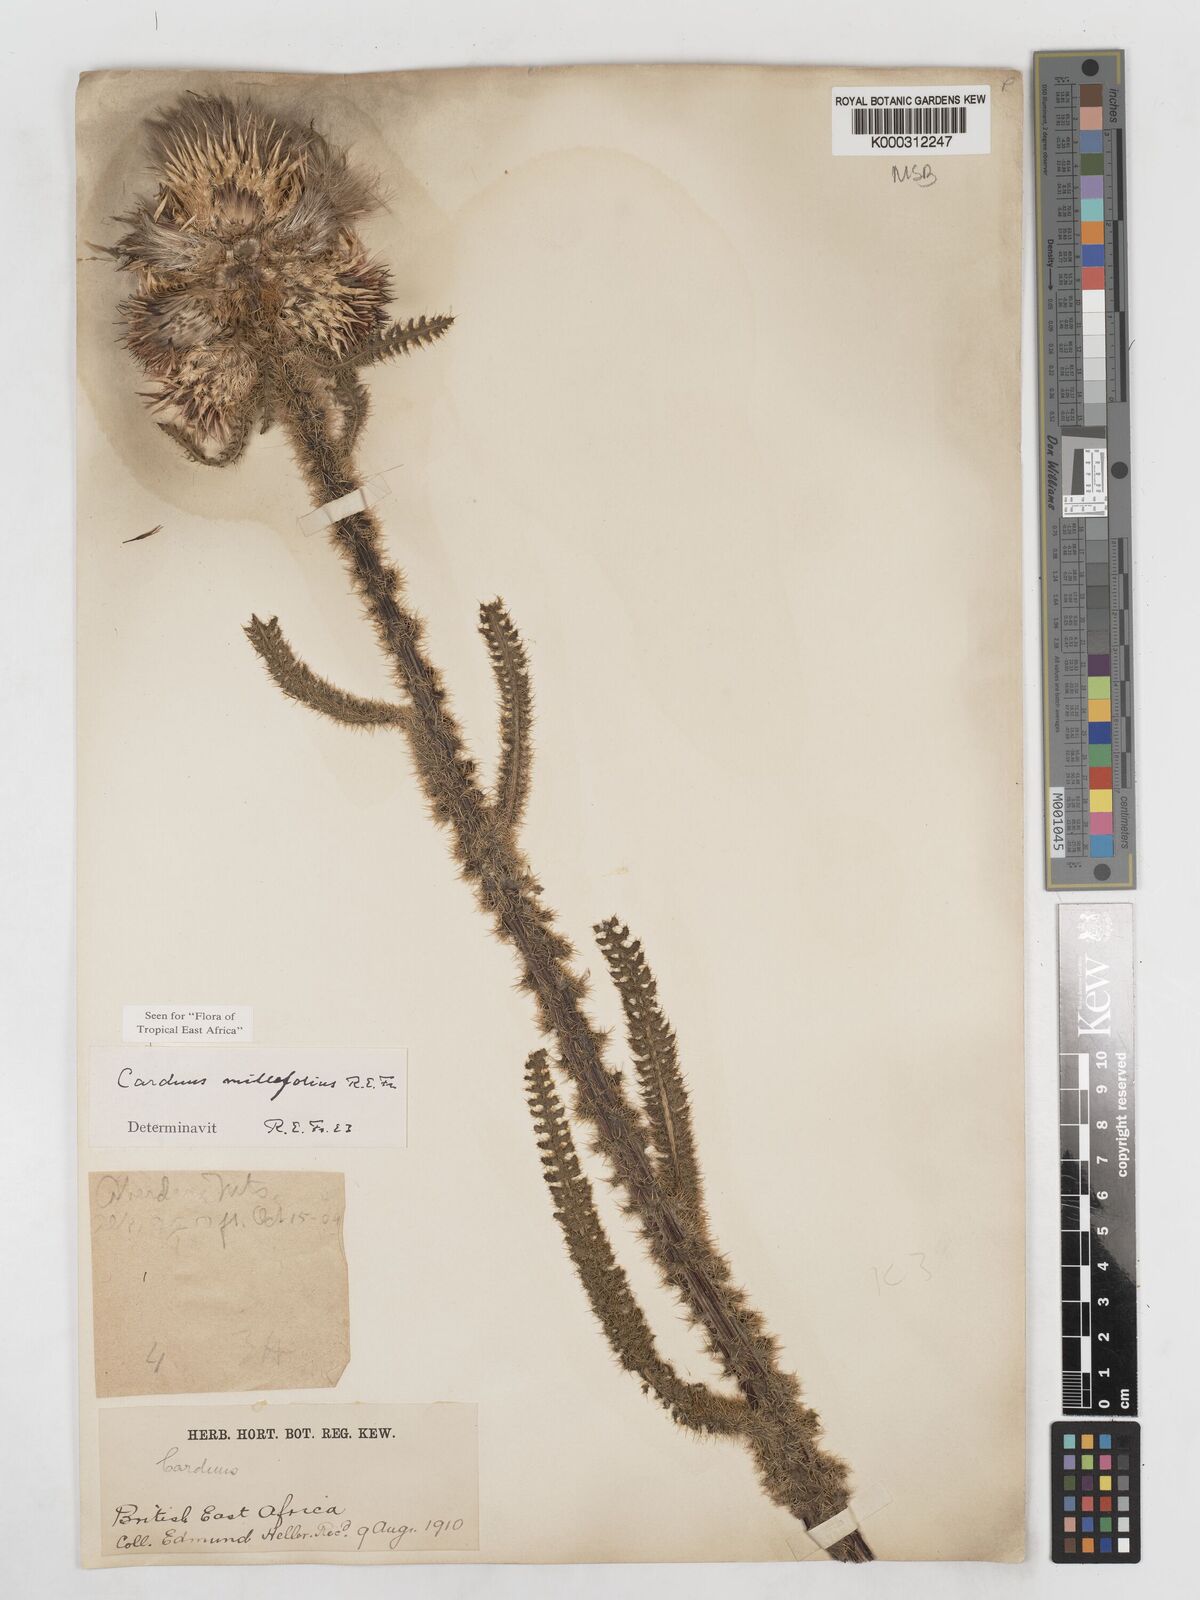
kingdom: Plantae
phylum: Tracheophyta
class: Magnoliopsida
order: Asterales
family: Asteraceae
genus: Carduus
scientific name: Carduus millefolius
